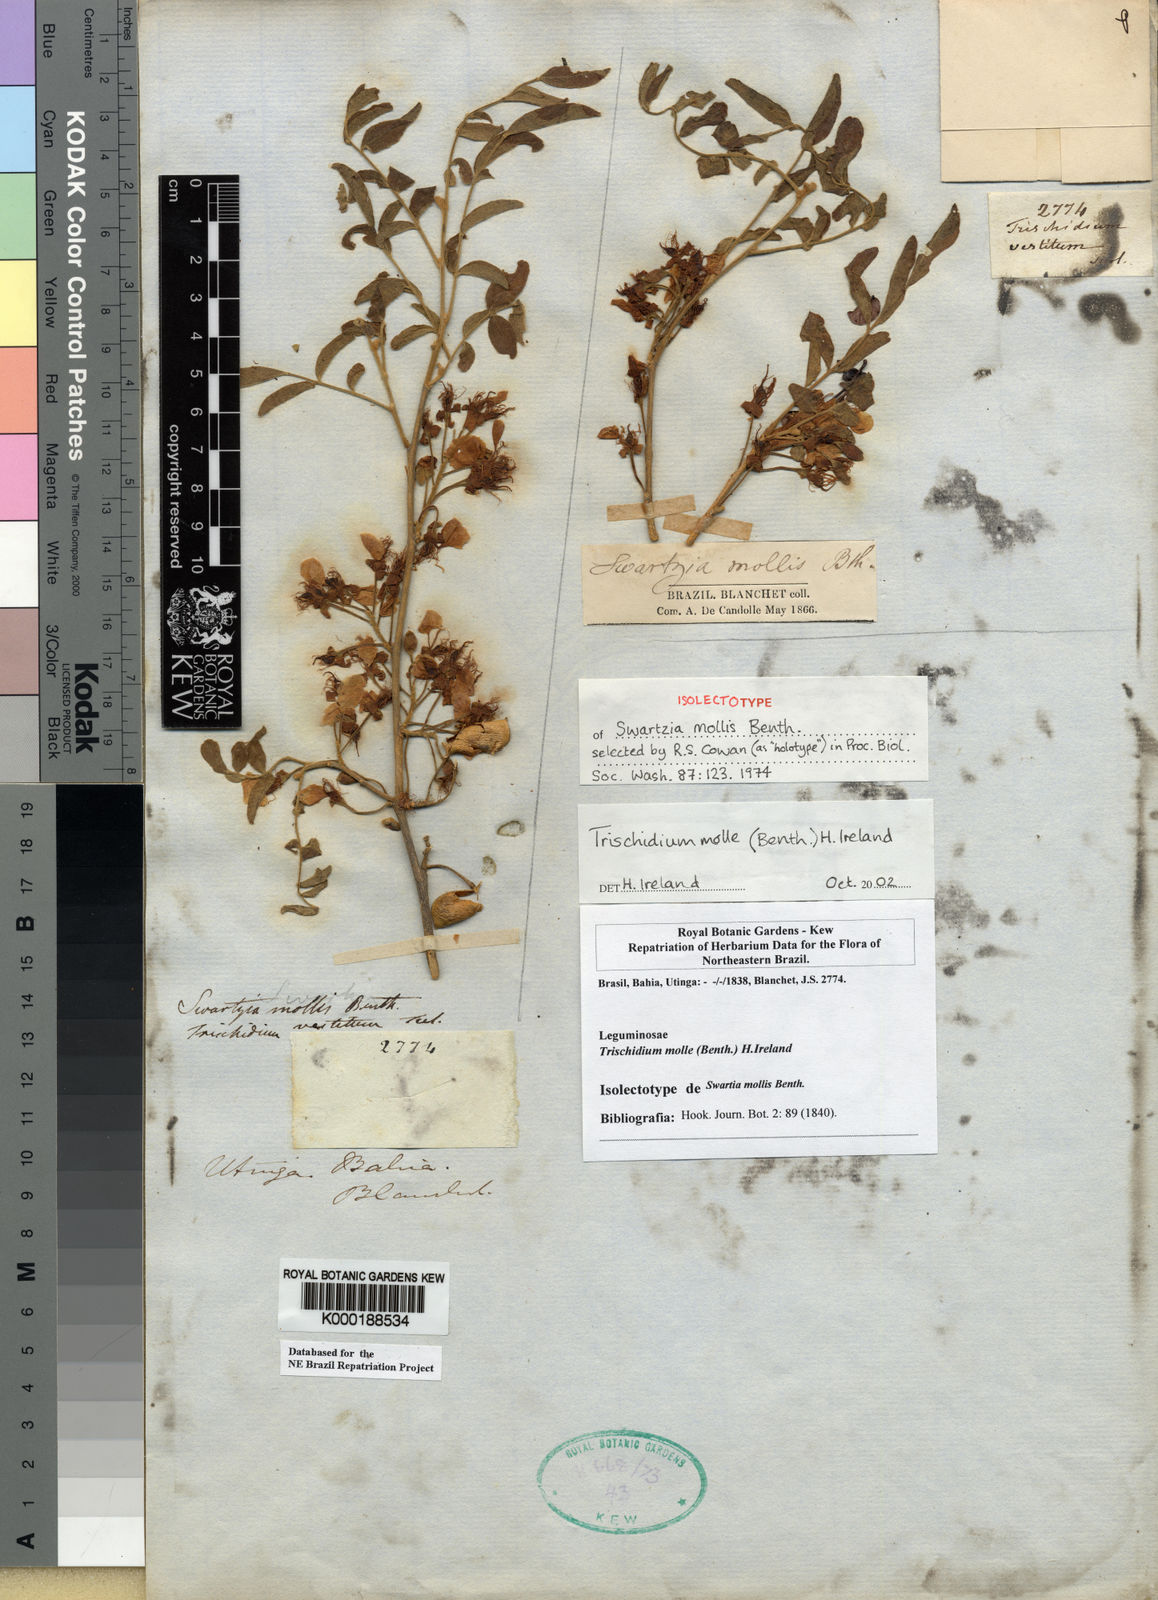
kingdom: Plantae
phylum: Tracheophyta
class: Magnoliopsida
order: Fabales
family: Fabaceae
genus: Trischidium
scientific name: Trischidium molle
